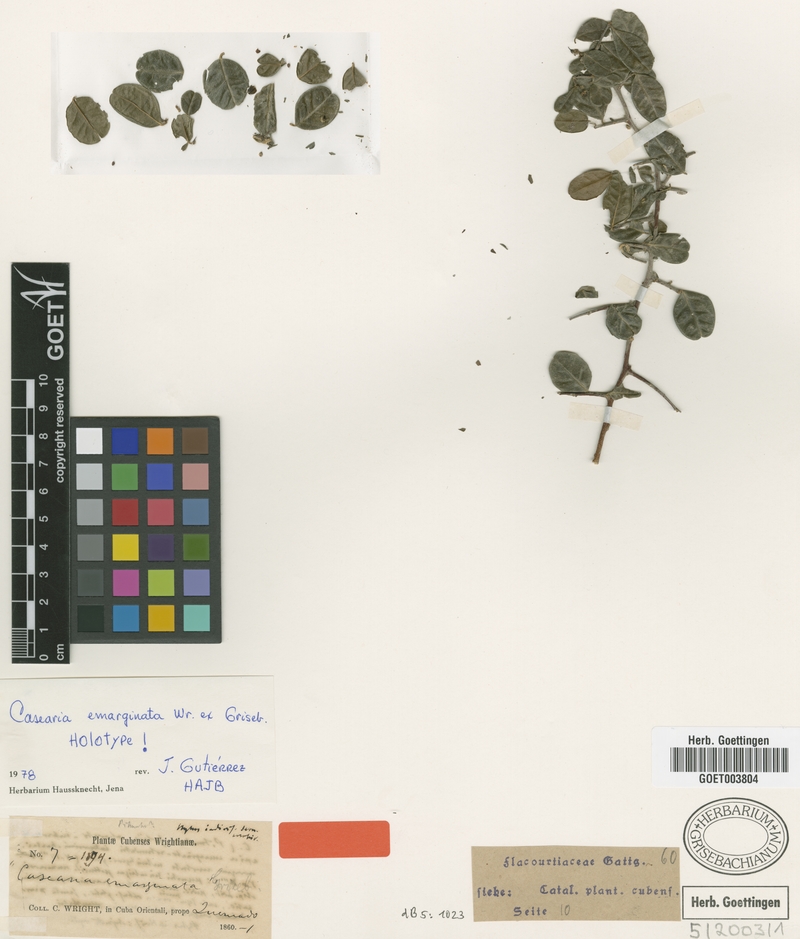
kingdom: Plantae
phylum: Tracheophyta
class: Magnoliopsida
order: Malpighiales
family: Salicaceae
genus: Casearia
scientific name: Casearia emarginata
